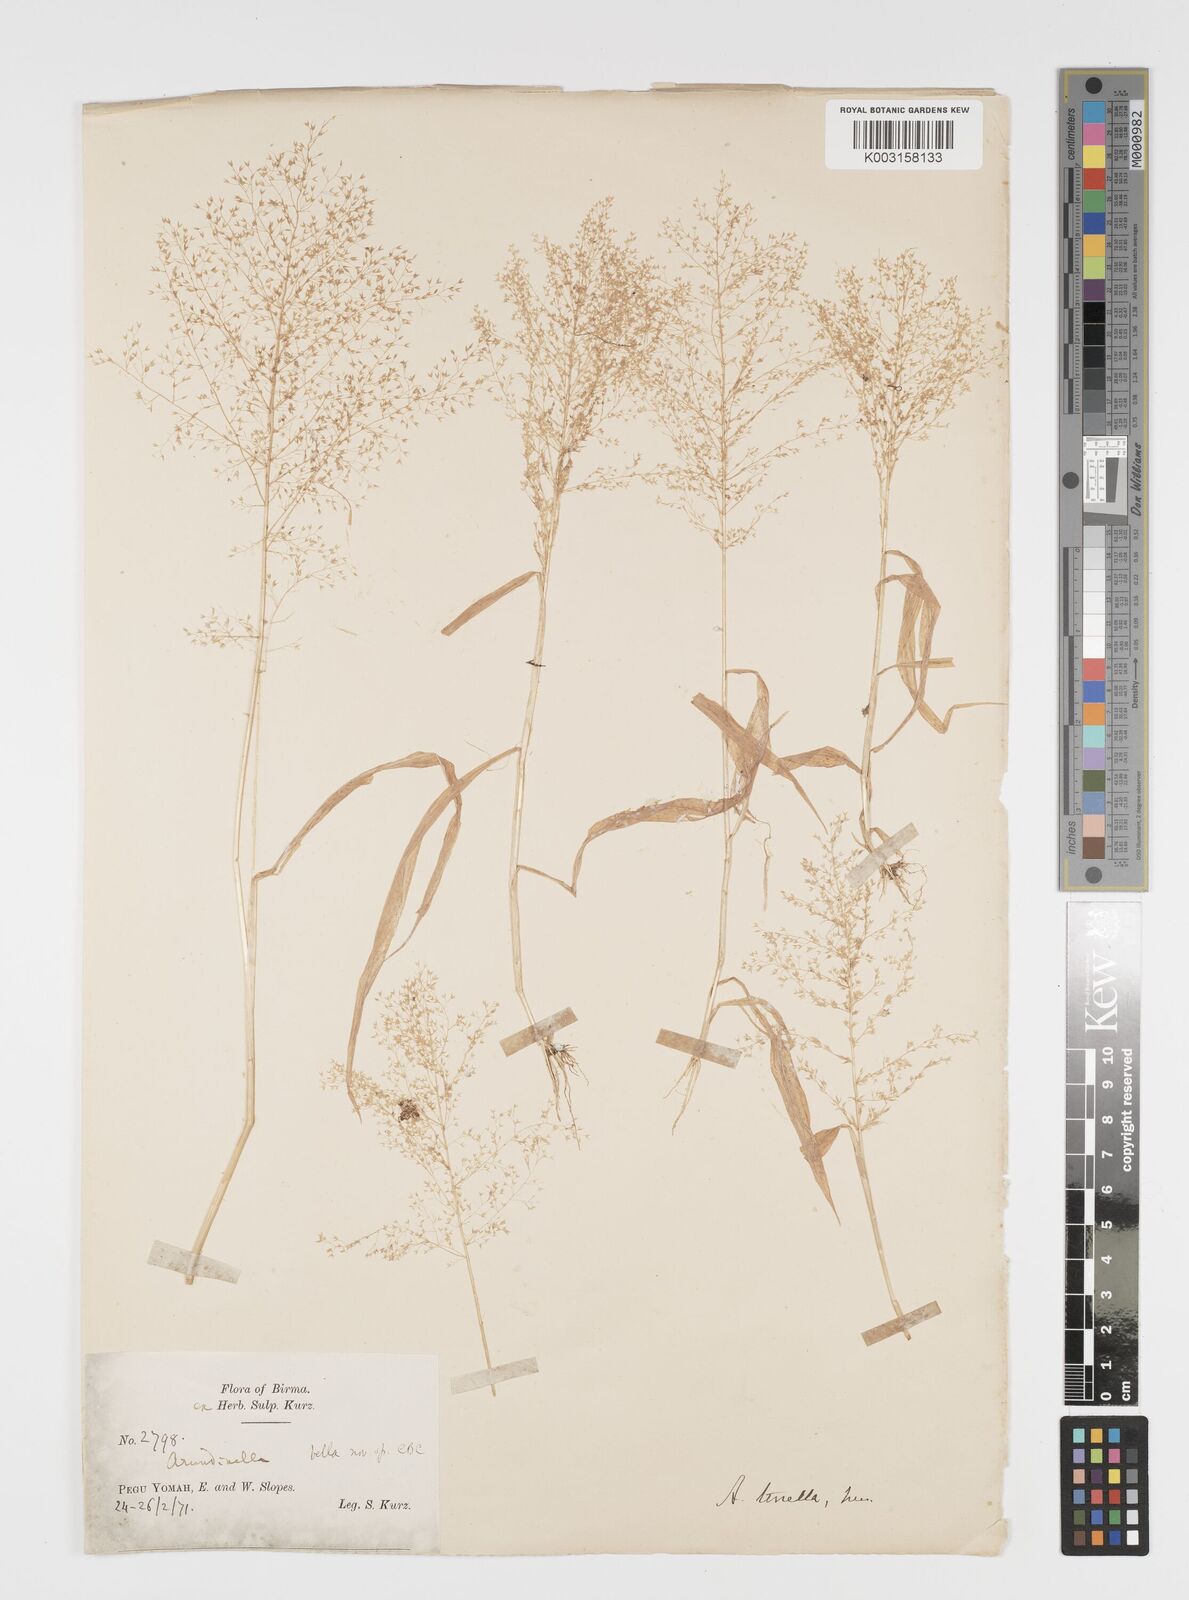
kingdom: Plantae
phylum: Tracheophyta
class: Liliopsida
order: Poales
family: Poaceae
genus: Arundinella
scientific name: Arundinella pumila
